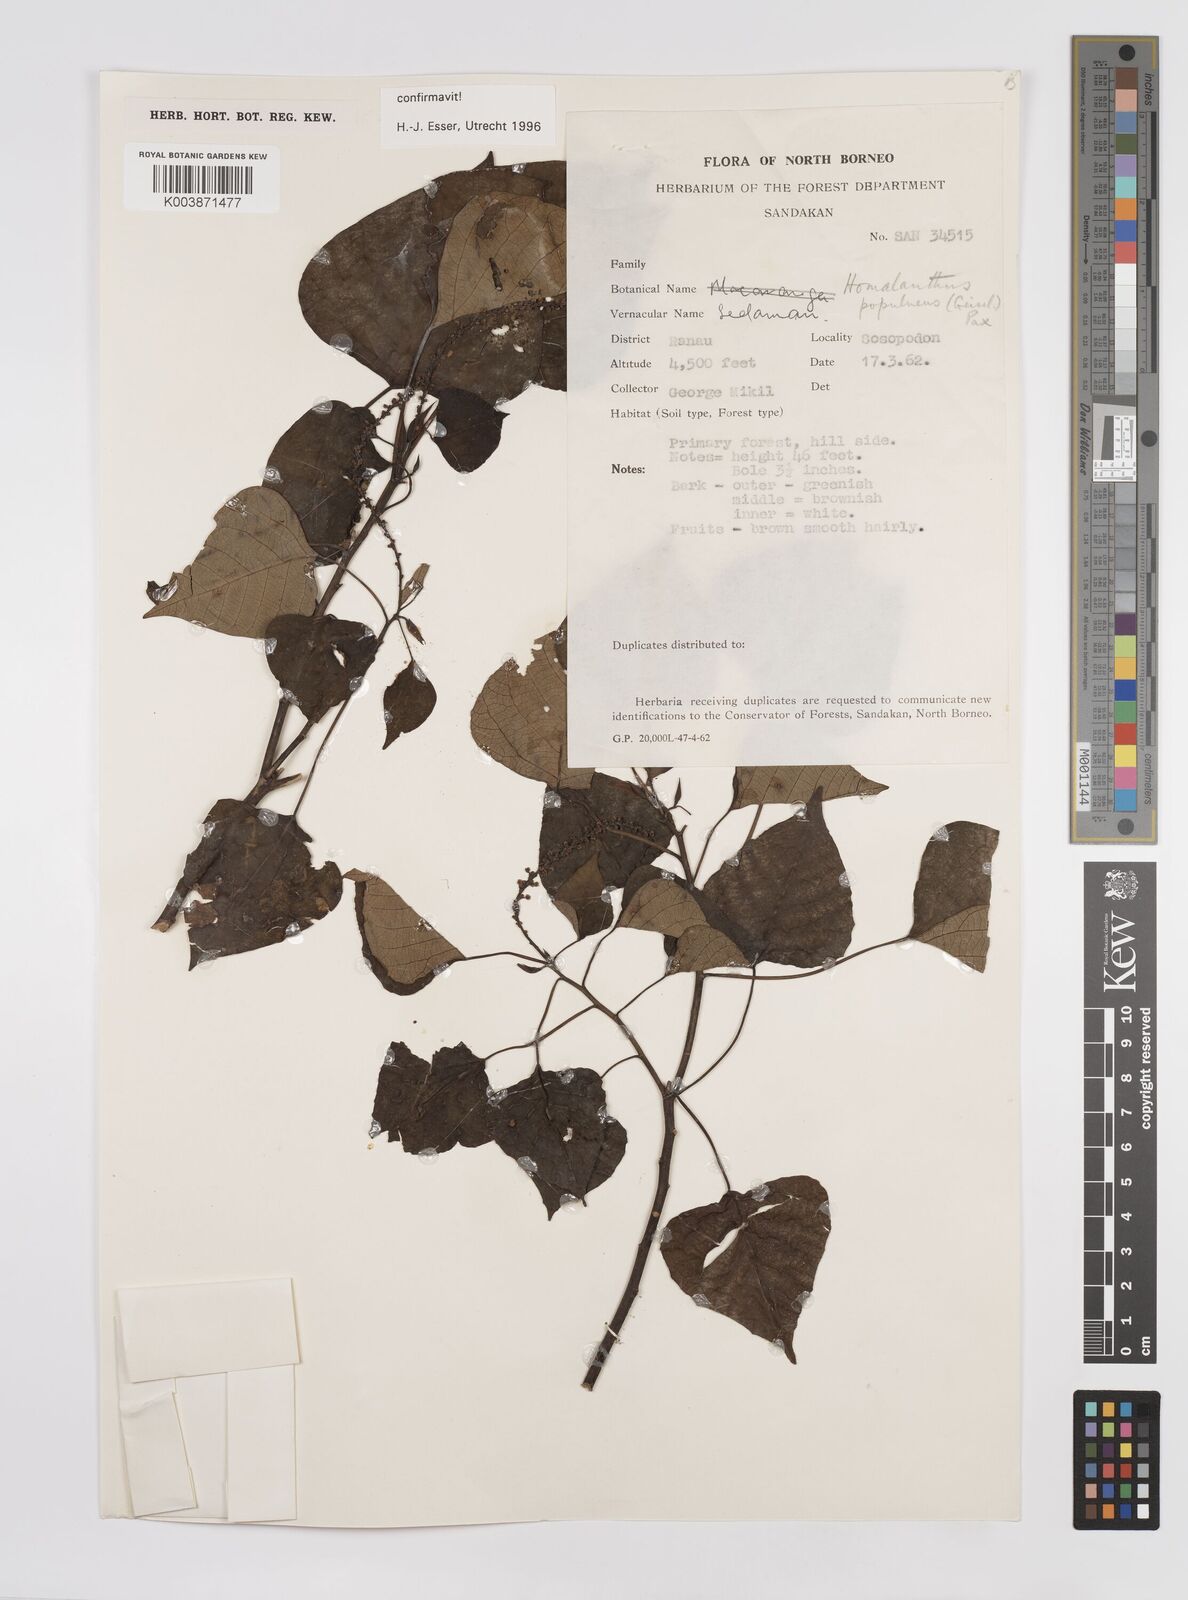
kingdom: Plantae
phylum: Tracheophyta
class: Magnoliopsida
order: Malpighiales
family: Euphorbiaceae
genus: Homalanthus
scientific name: Homalanthus populneus
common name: Spurge
